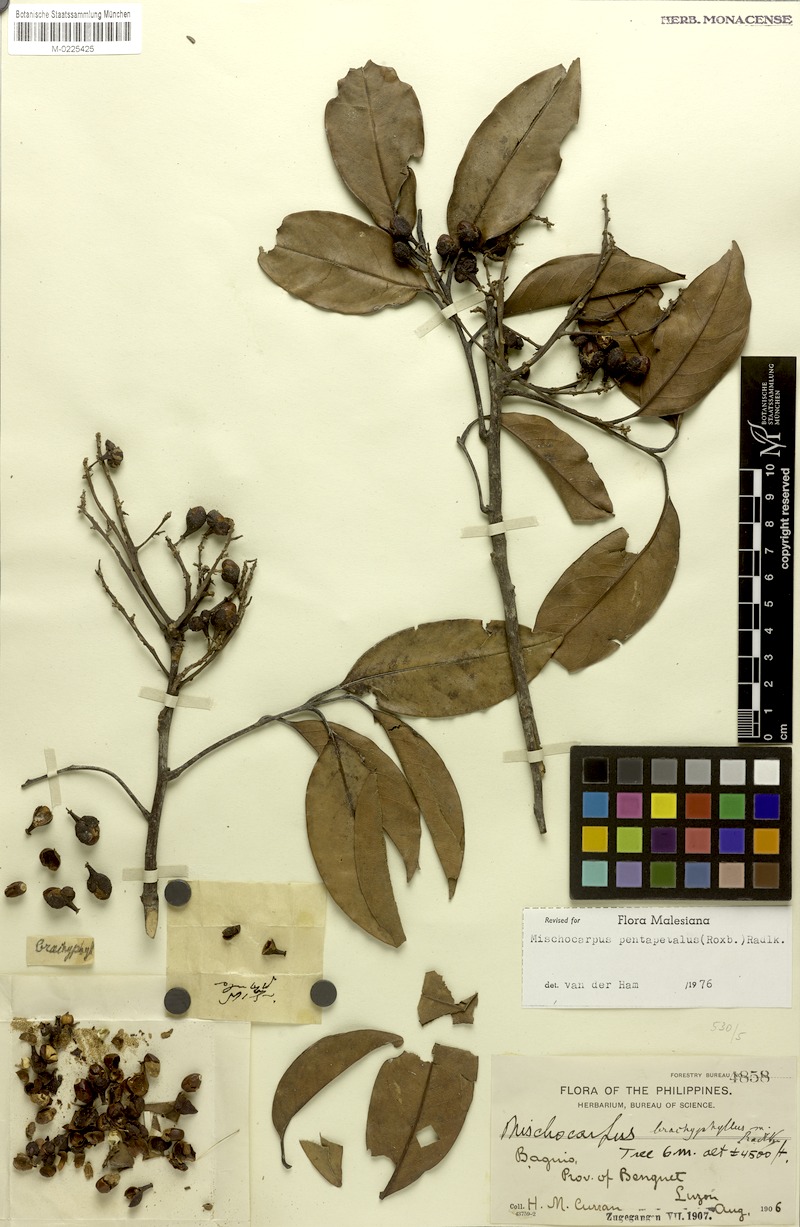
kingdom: Plantae
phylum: Tracheophyta
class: Magnoliopsida
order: Sapindales
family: Sapindaceae
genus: Mischocarpus
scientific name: Mischocarpus pentapetalus
